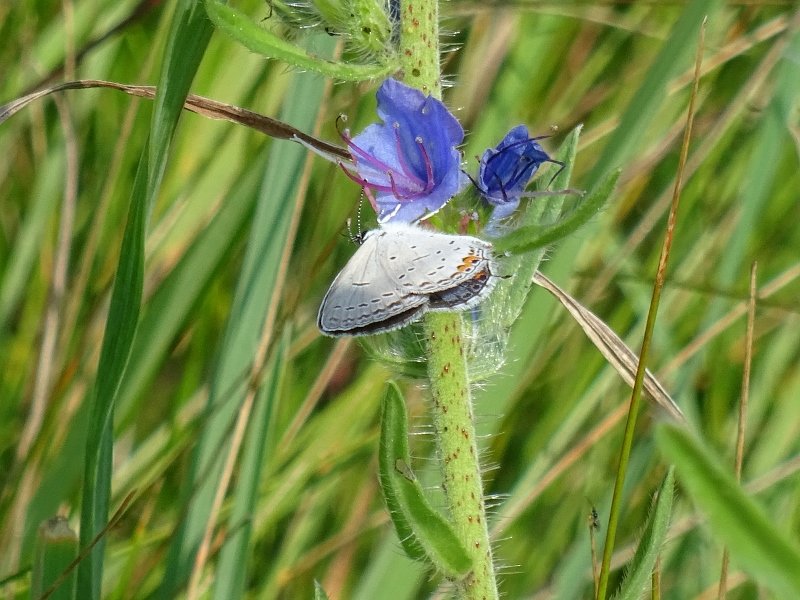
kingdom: Animalia
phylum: Arthropoda
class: Insecta
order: Lepidoptera
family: Lycaenidae
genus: Elkalyce
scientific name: Elkalyce comyntas
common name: Eastern Tailed-Blue
